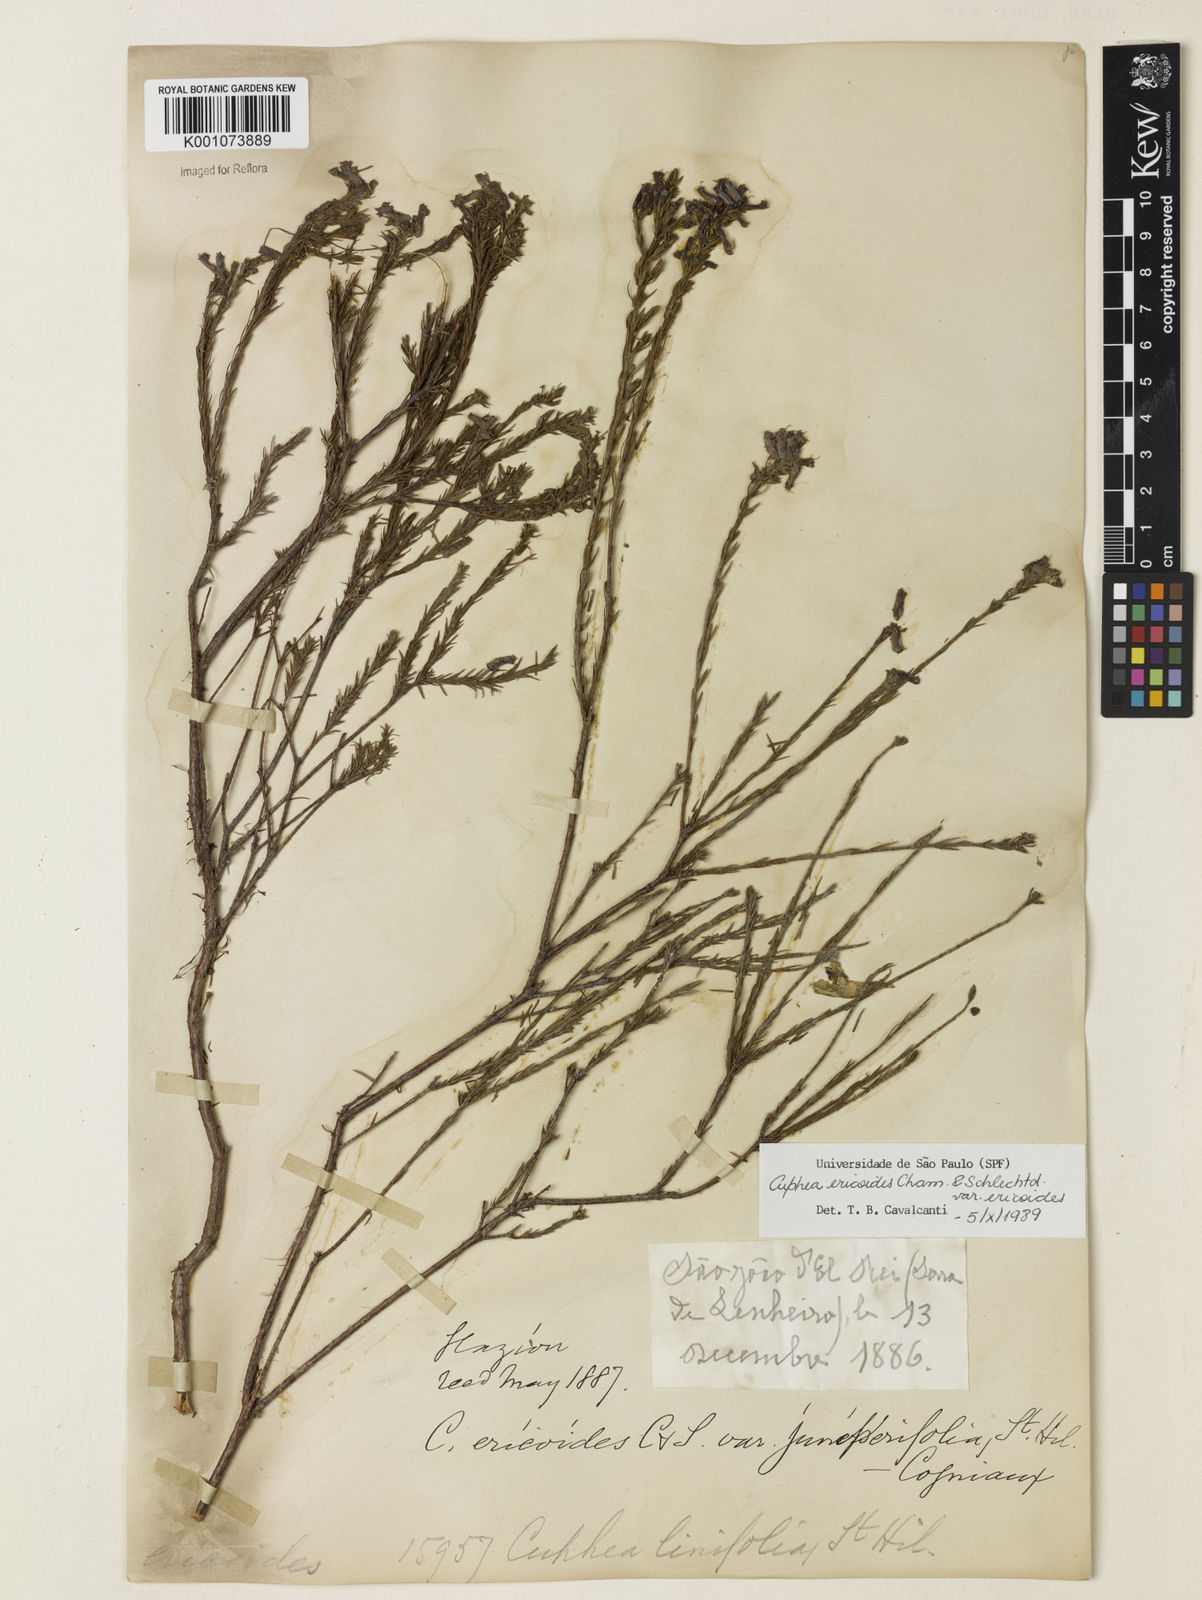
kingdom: Plantae
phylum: Tracheophyta
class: Magnoliopsida
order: Myrtales
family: Lythraceae
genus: Cuphea
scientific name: Cuphea ericoides
